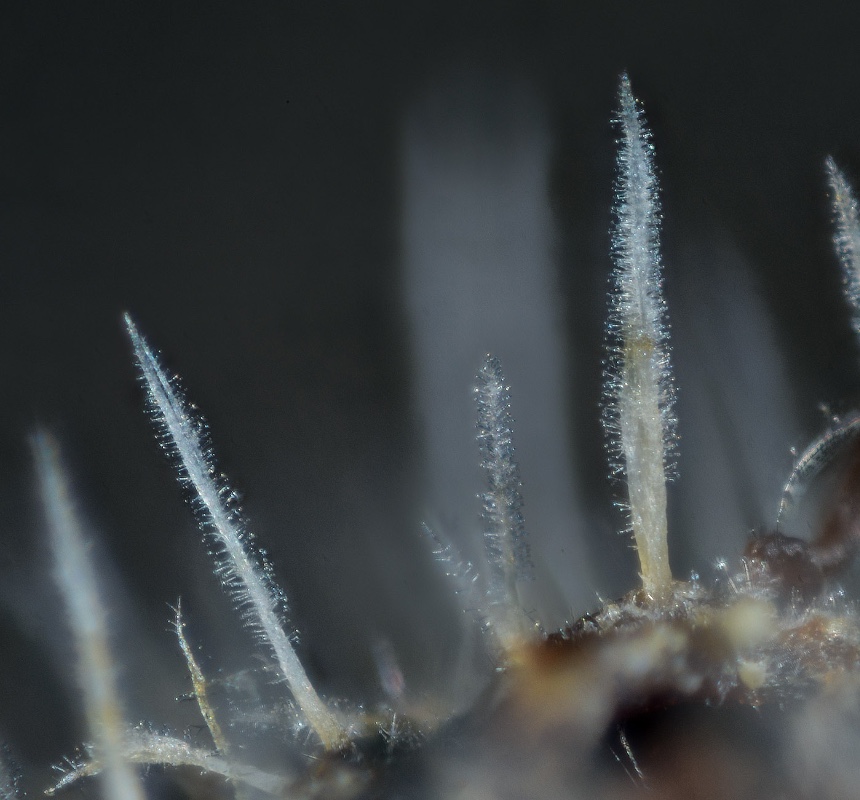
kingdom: Fungi
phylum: Ascomycota
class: Sordariomycetes
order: Hypocreales
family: Tilachlidiaceae
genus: Tilachlidium
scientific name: Tilachlidium brachiatum
